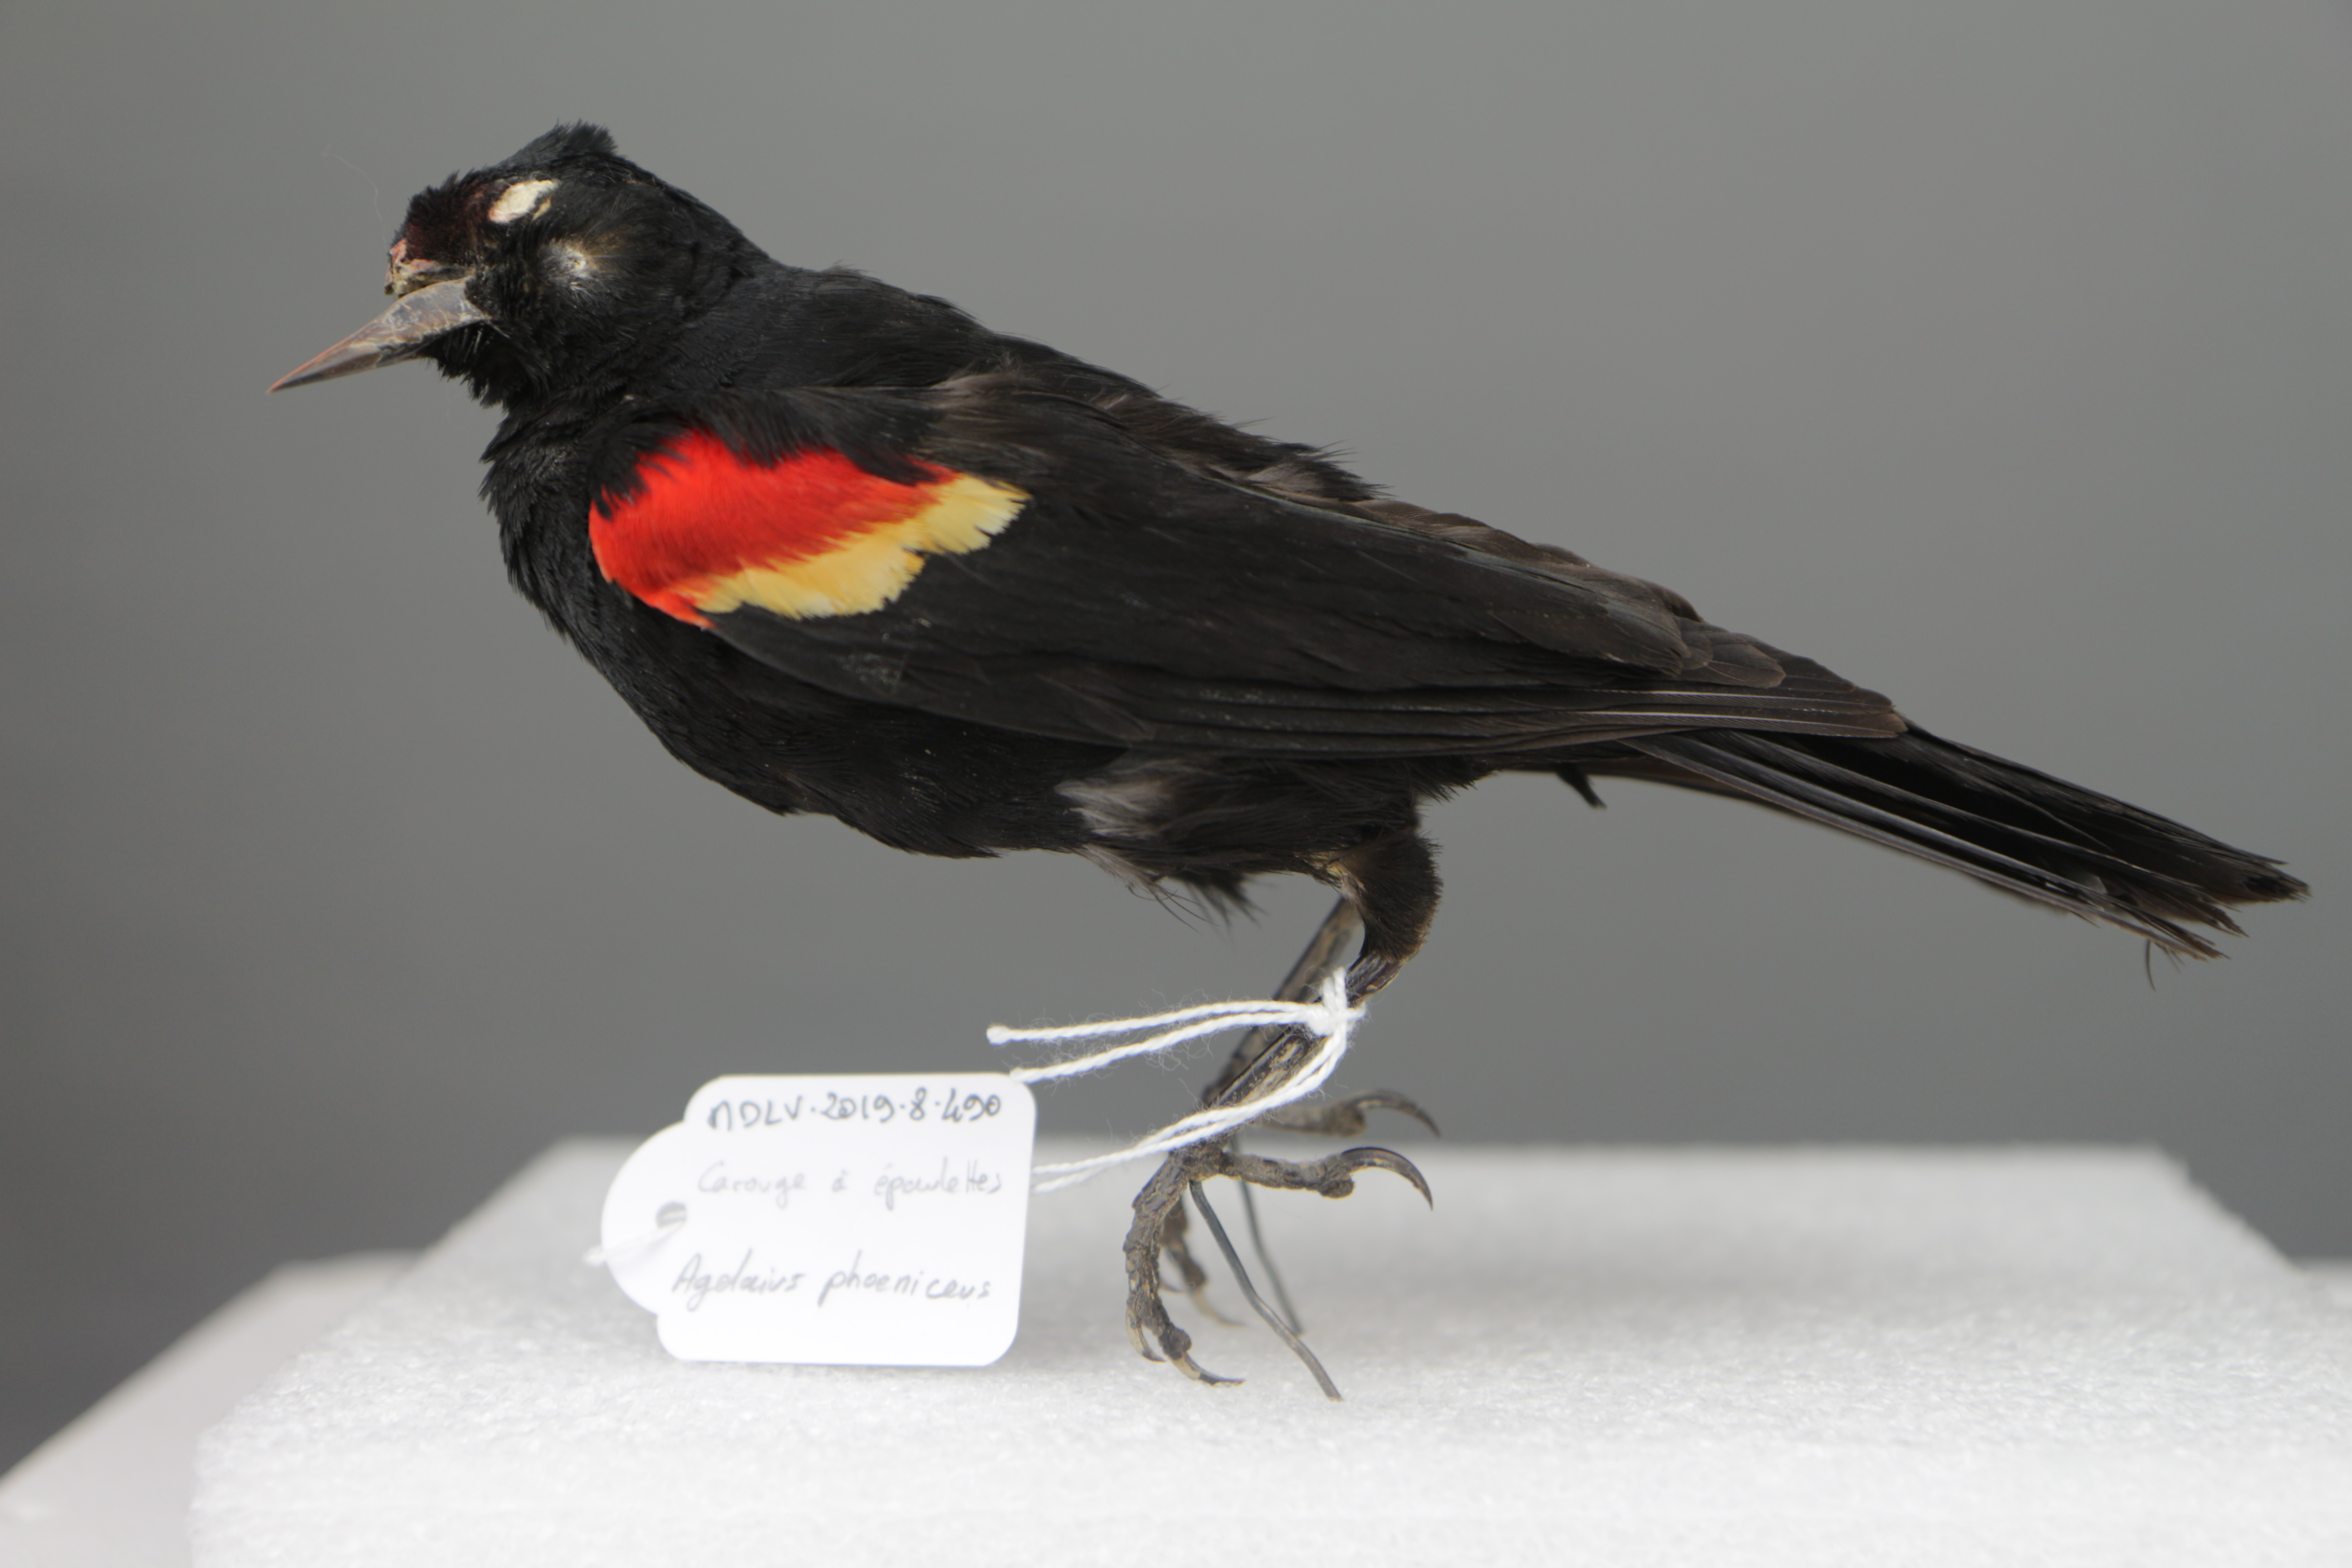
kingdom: Animalia
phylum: Chordata
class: Aves
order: Passeriformes
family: Icteridae
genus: Agelaius
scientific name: Agelaius phoeniceus
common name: Red-winged blackbird
